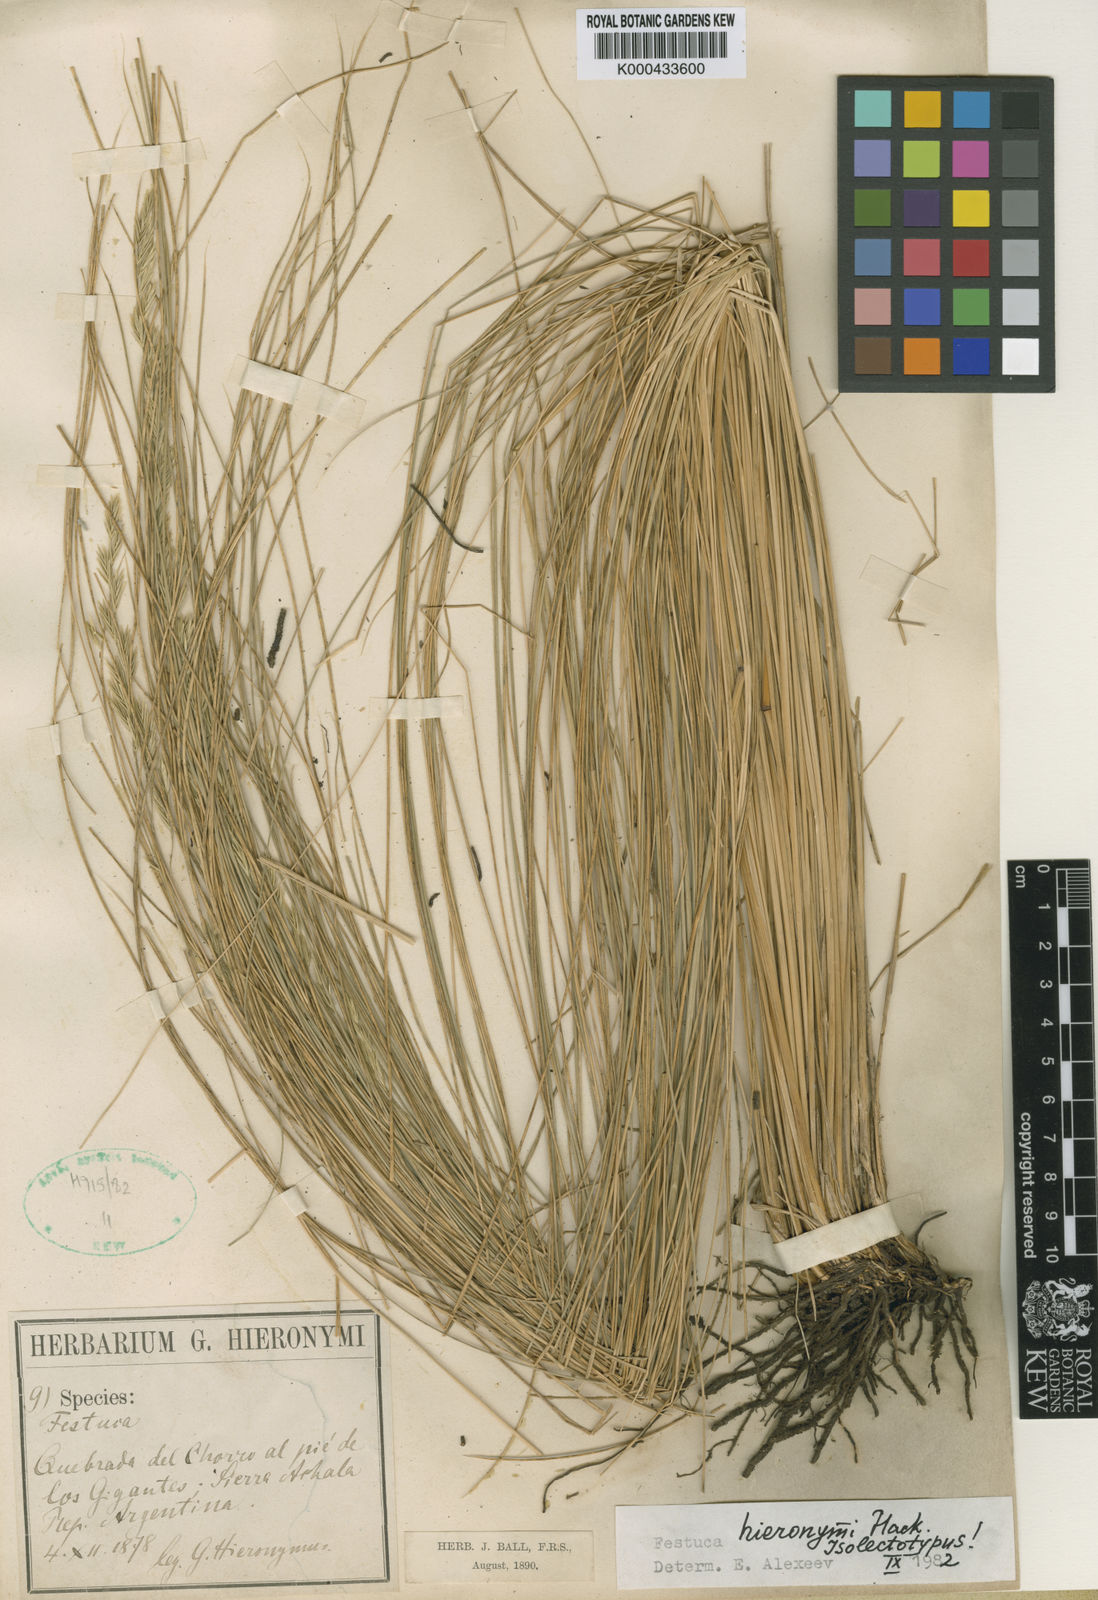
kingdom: Plantae
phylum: Tracheophyta
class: Liliopsida
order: Poales
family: Poaceae
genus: Festuca
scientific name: Festuca hieronymi
